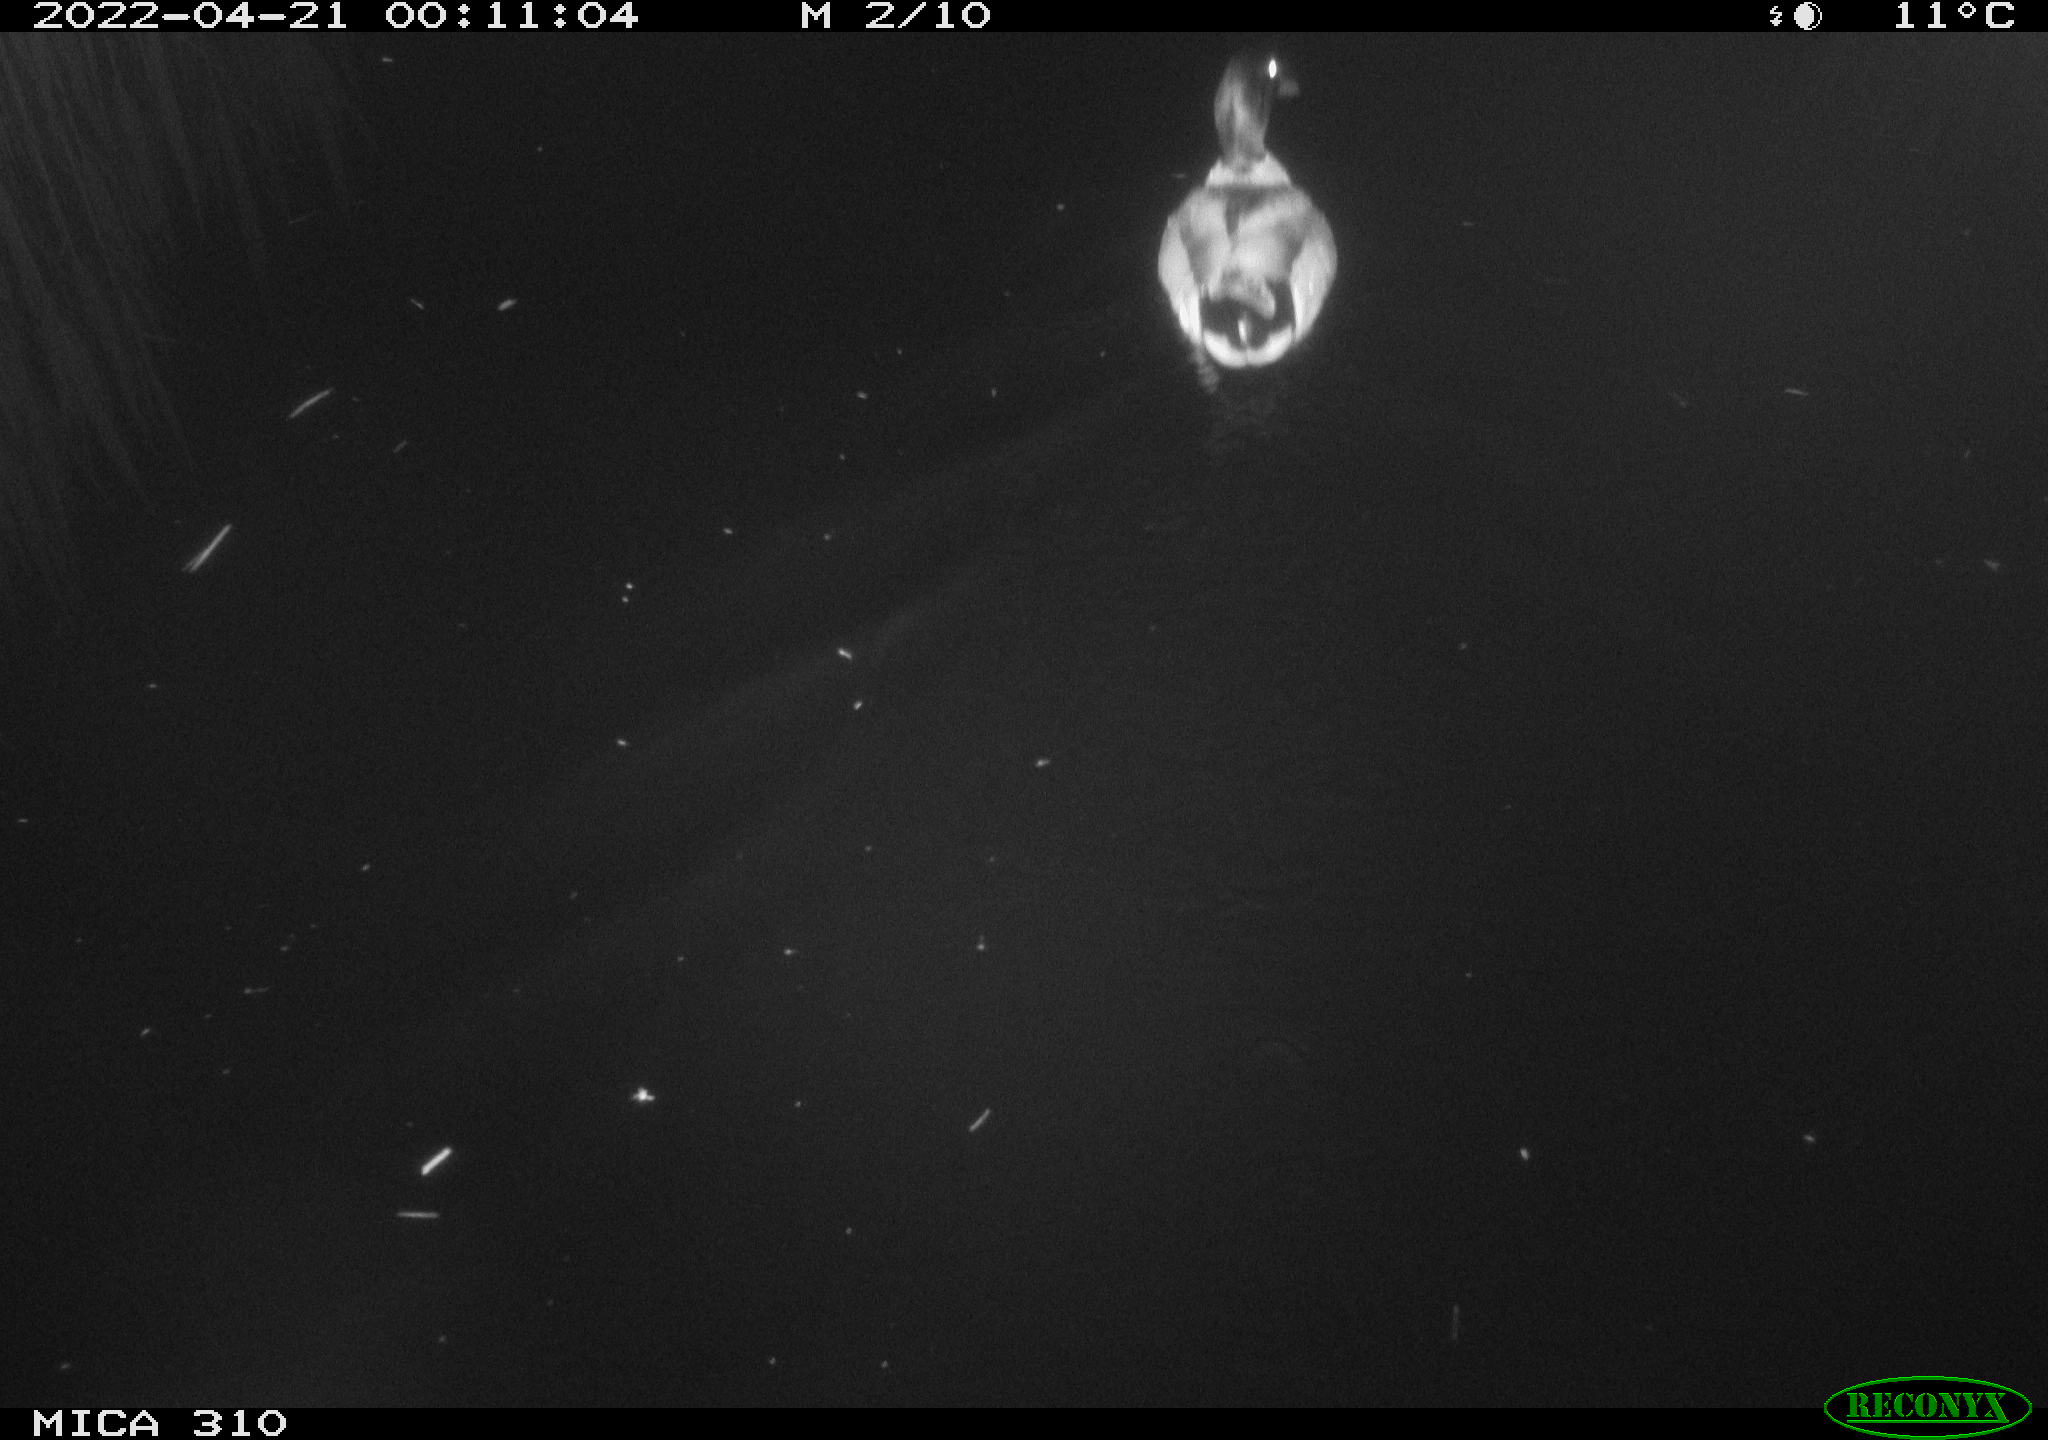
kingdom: Animalia
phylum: Chordata
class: Aves
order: Anseriformes
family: Anatidae
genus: Anas
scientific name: Anas platyrhynchos
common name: Mallard
